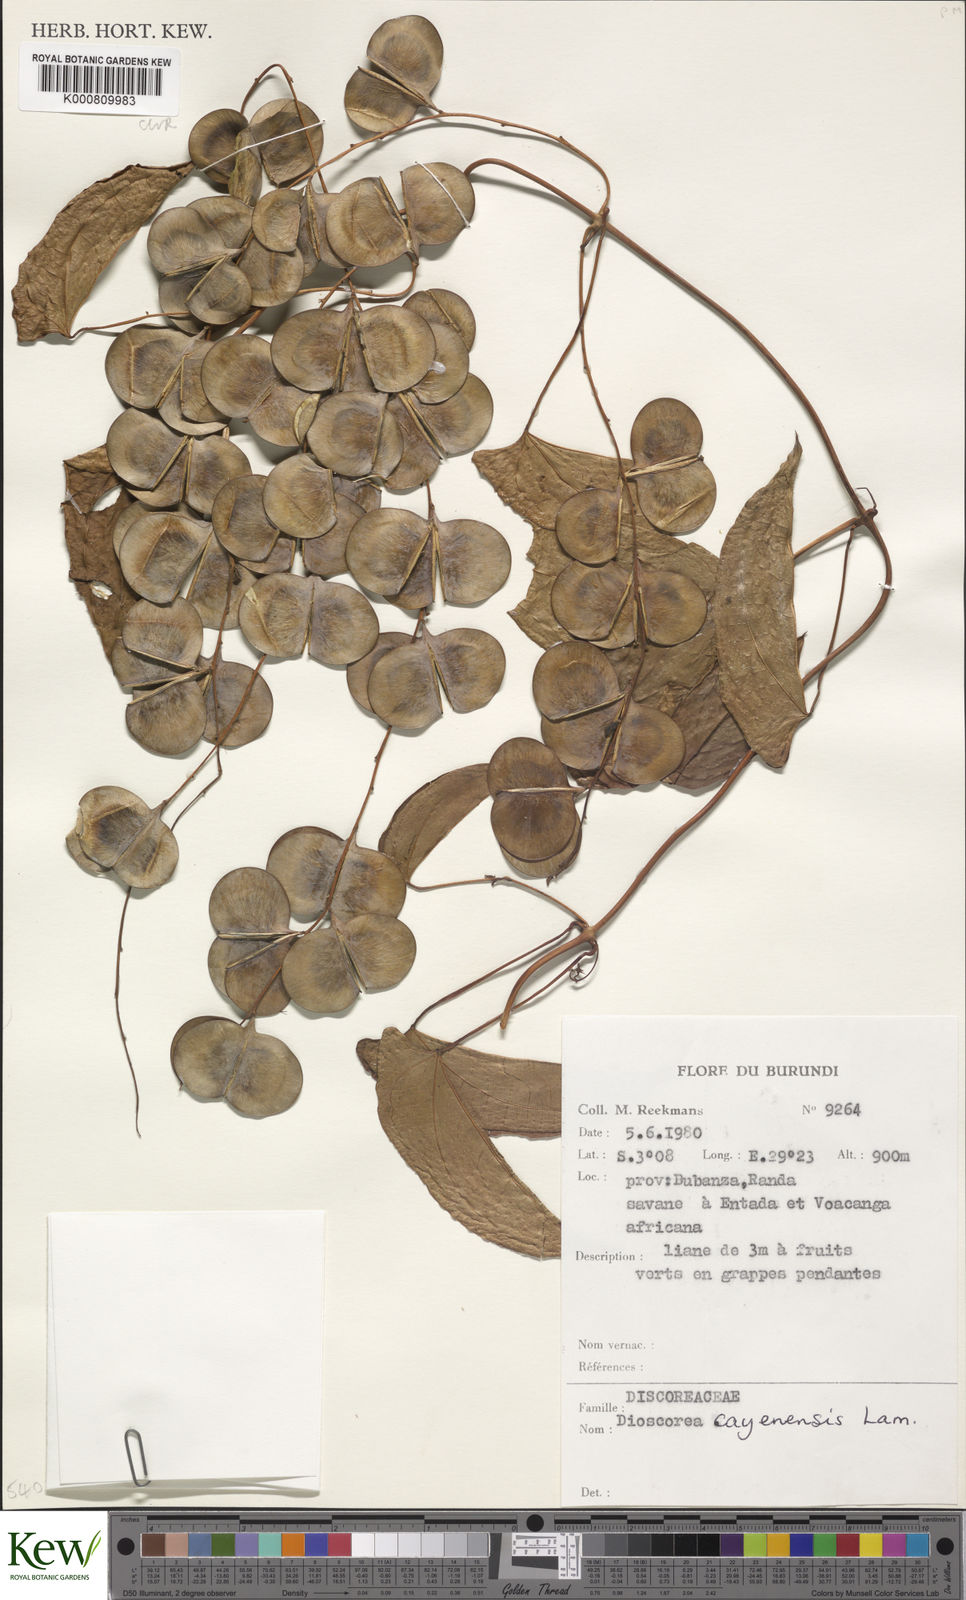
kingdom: Plantae
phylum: Tracheophyta
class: Liliopsida
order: Dioscoreales
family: Dioscoreaceae
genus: Dioscorea
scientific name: Dioscorea cayenensis
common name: Attoto yam
